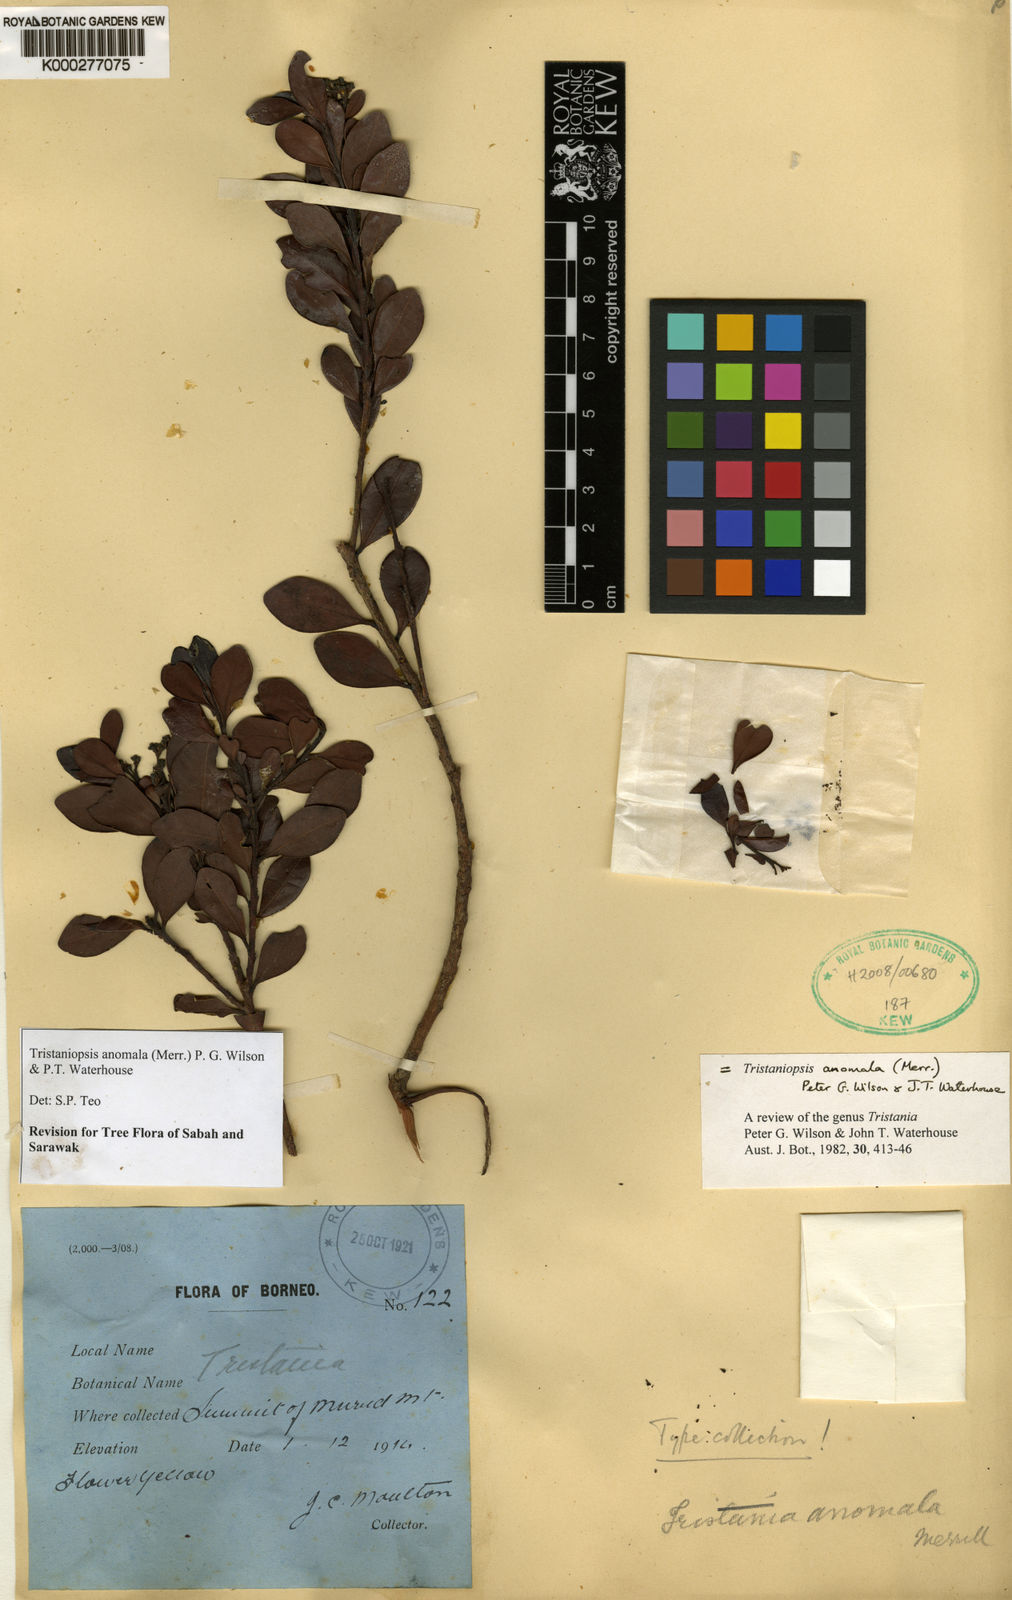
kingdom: Plantae
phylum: Tracheophyta
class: Magnoliopsida
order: Myrtales
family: Myrtaceae
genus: Tristaniopsis
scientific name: Tristaniopsis anomala
